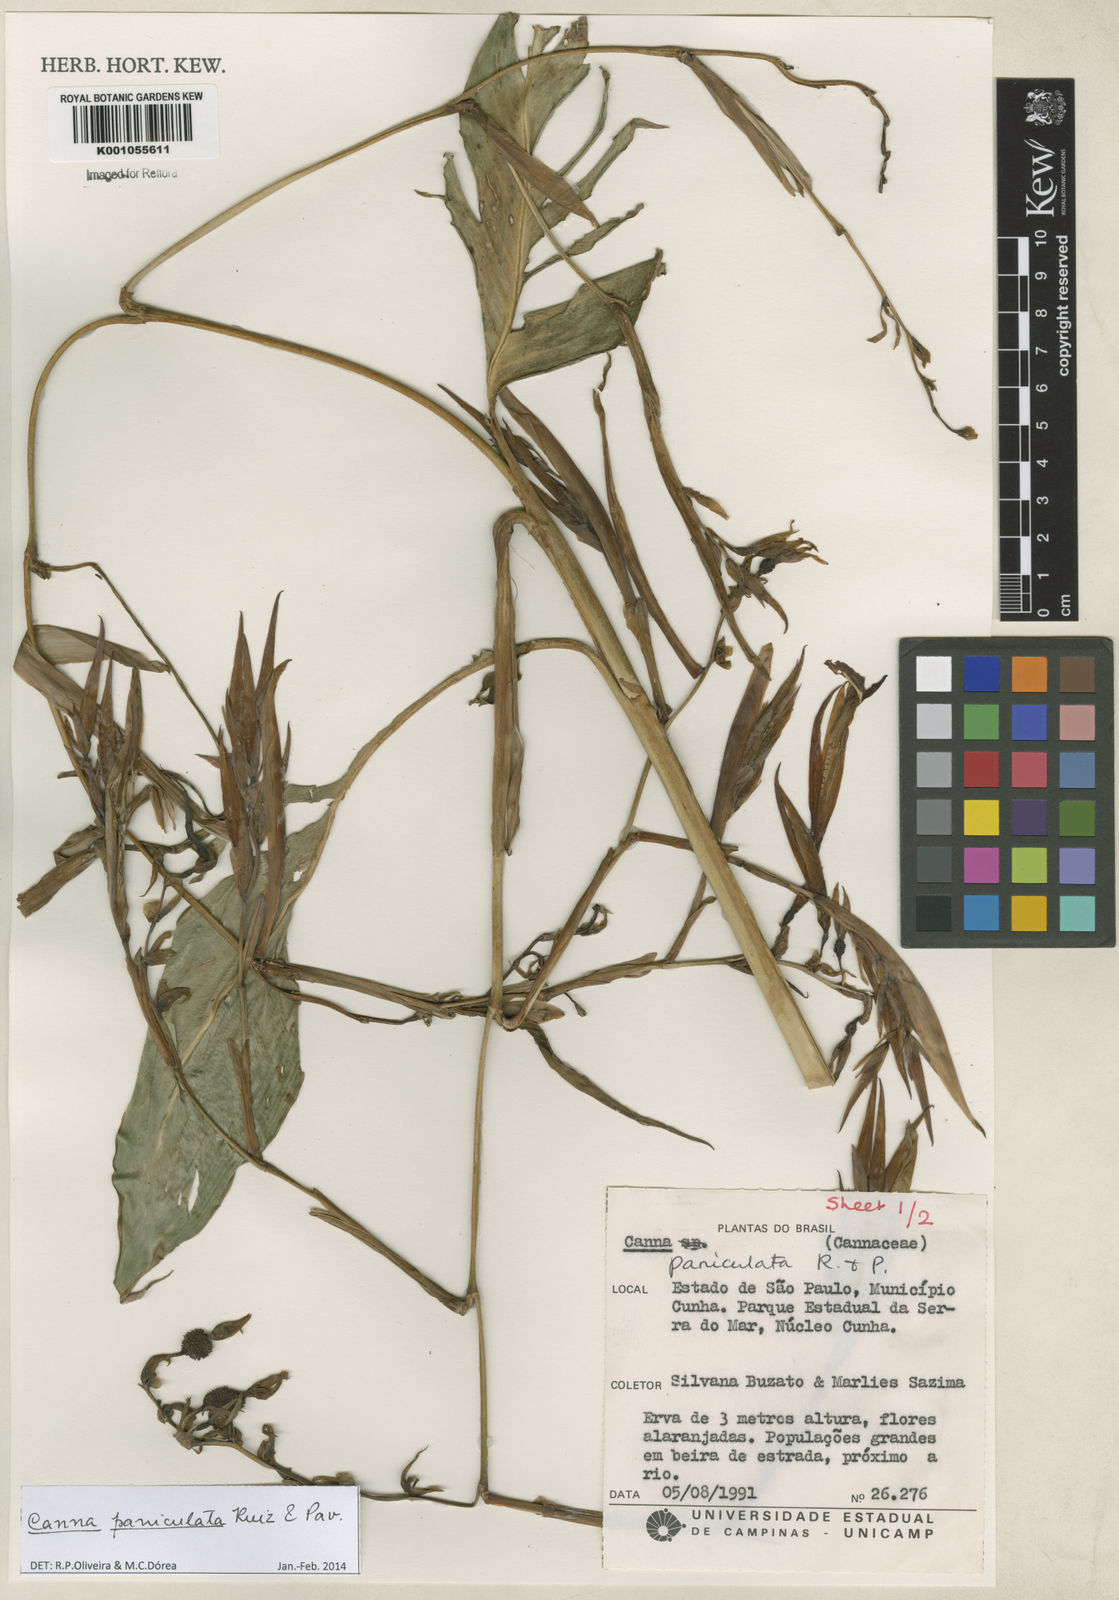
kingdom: Plantae
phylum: Tracheophyta
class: Liliopsida
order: Zingiberales
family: Cannaceae
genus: Canna
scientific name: Canna paniculata
